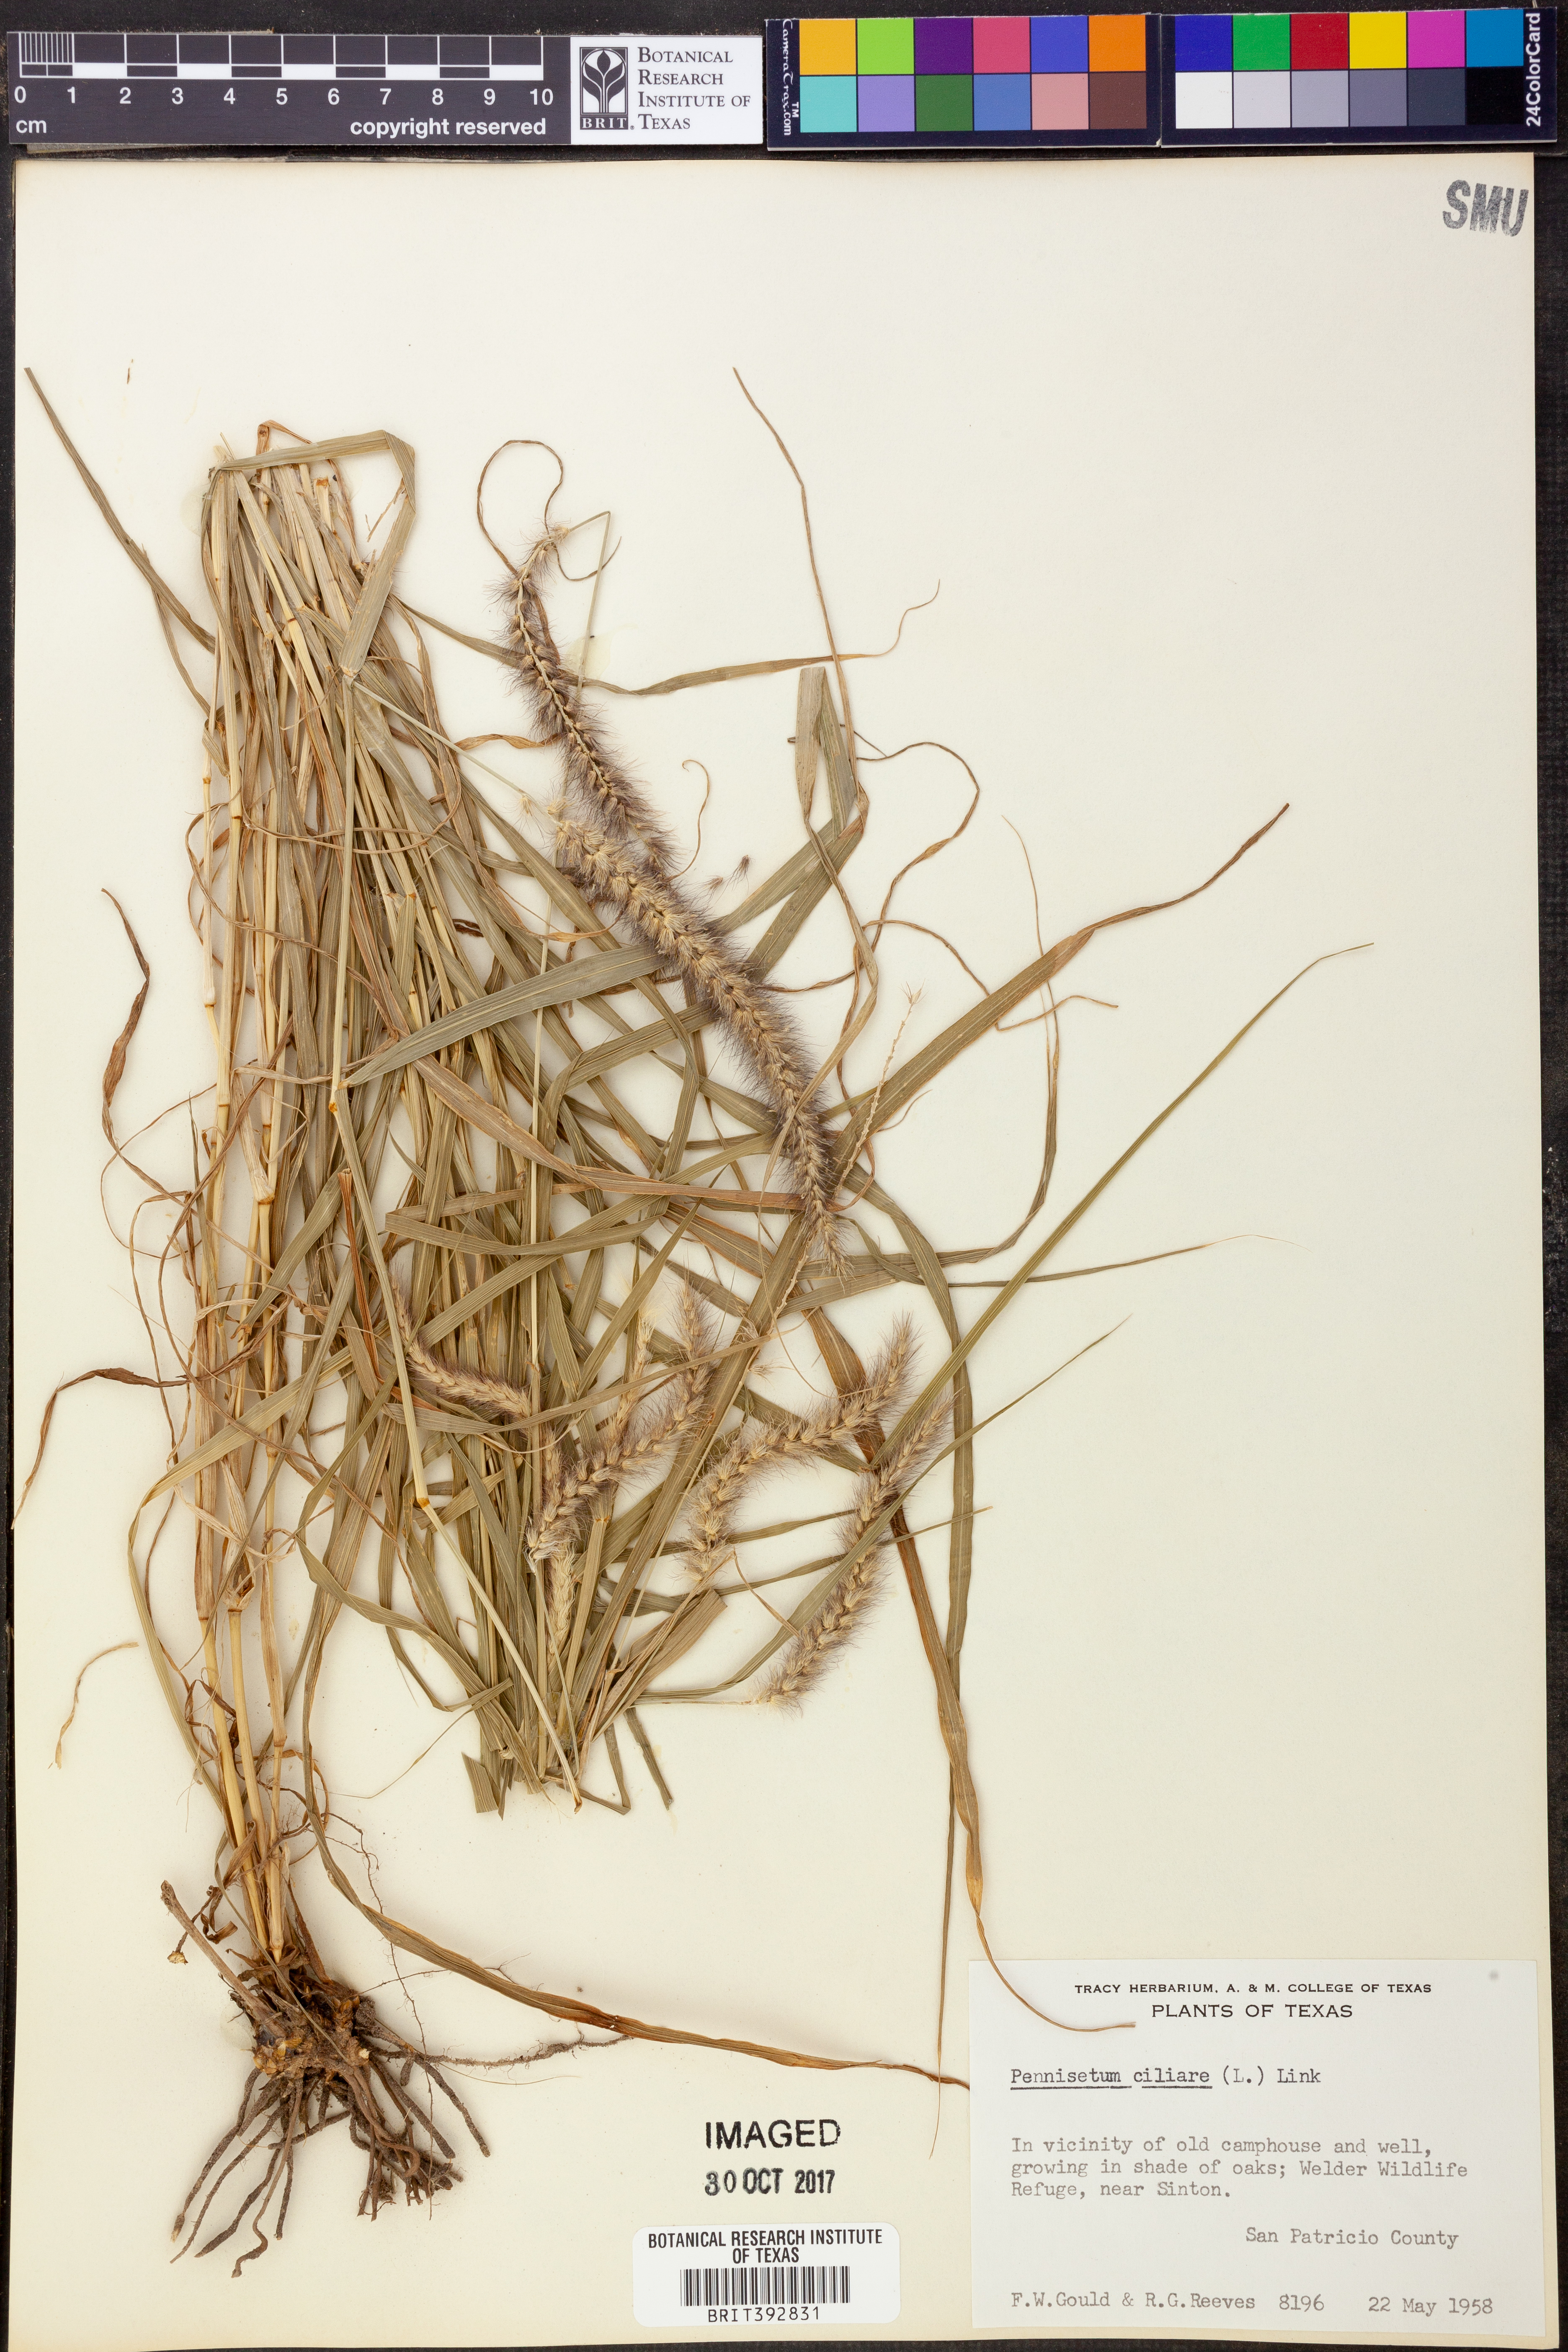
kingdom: Plantae
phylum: Tracheophyta
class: Liliopsida
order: Poales
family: Poaceae
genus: Cenchrus
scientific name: Cenchrus ciliaris
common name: Buffelgrass
